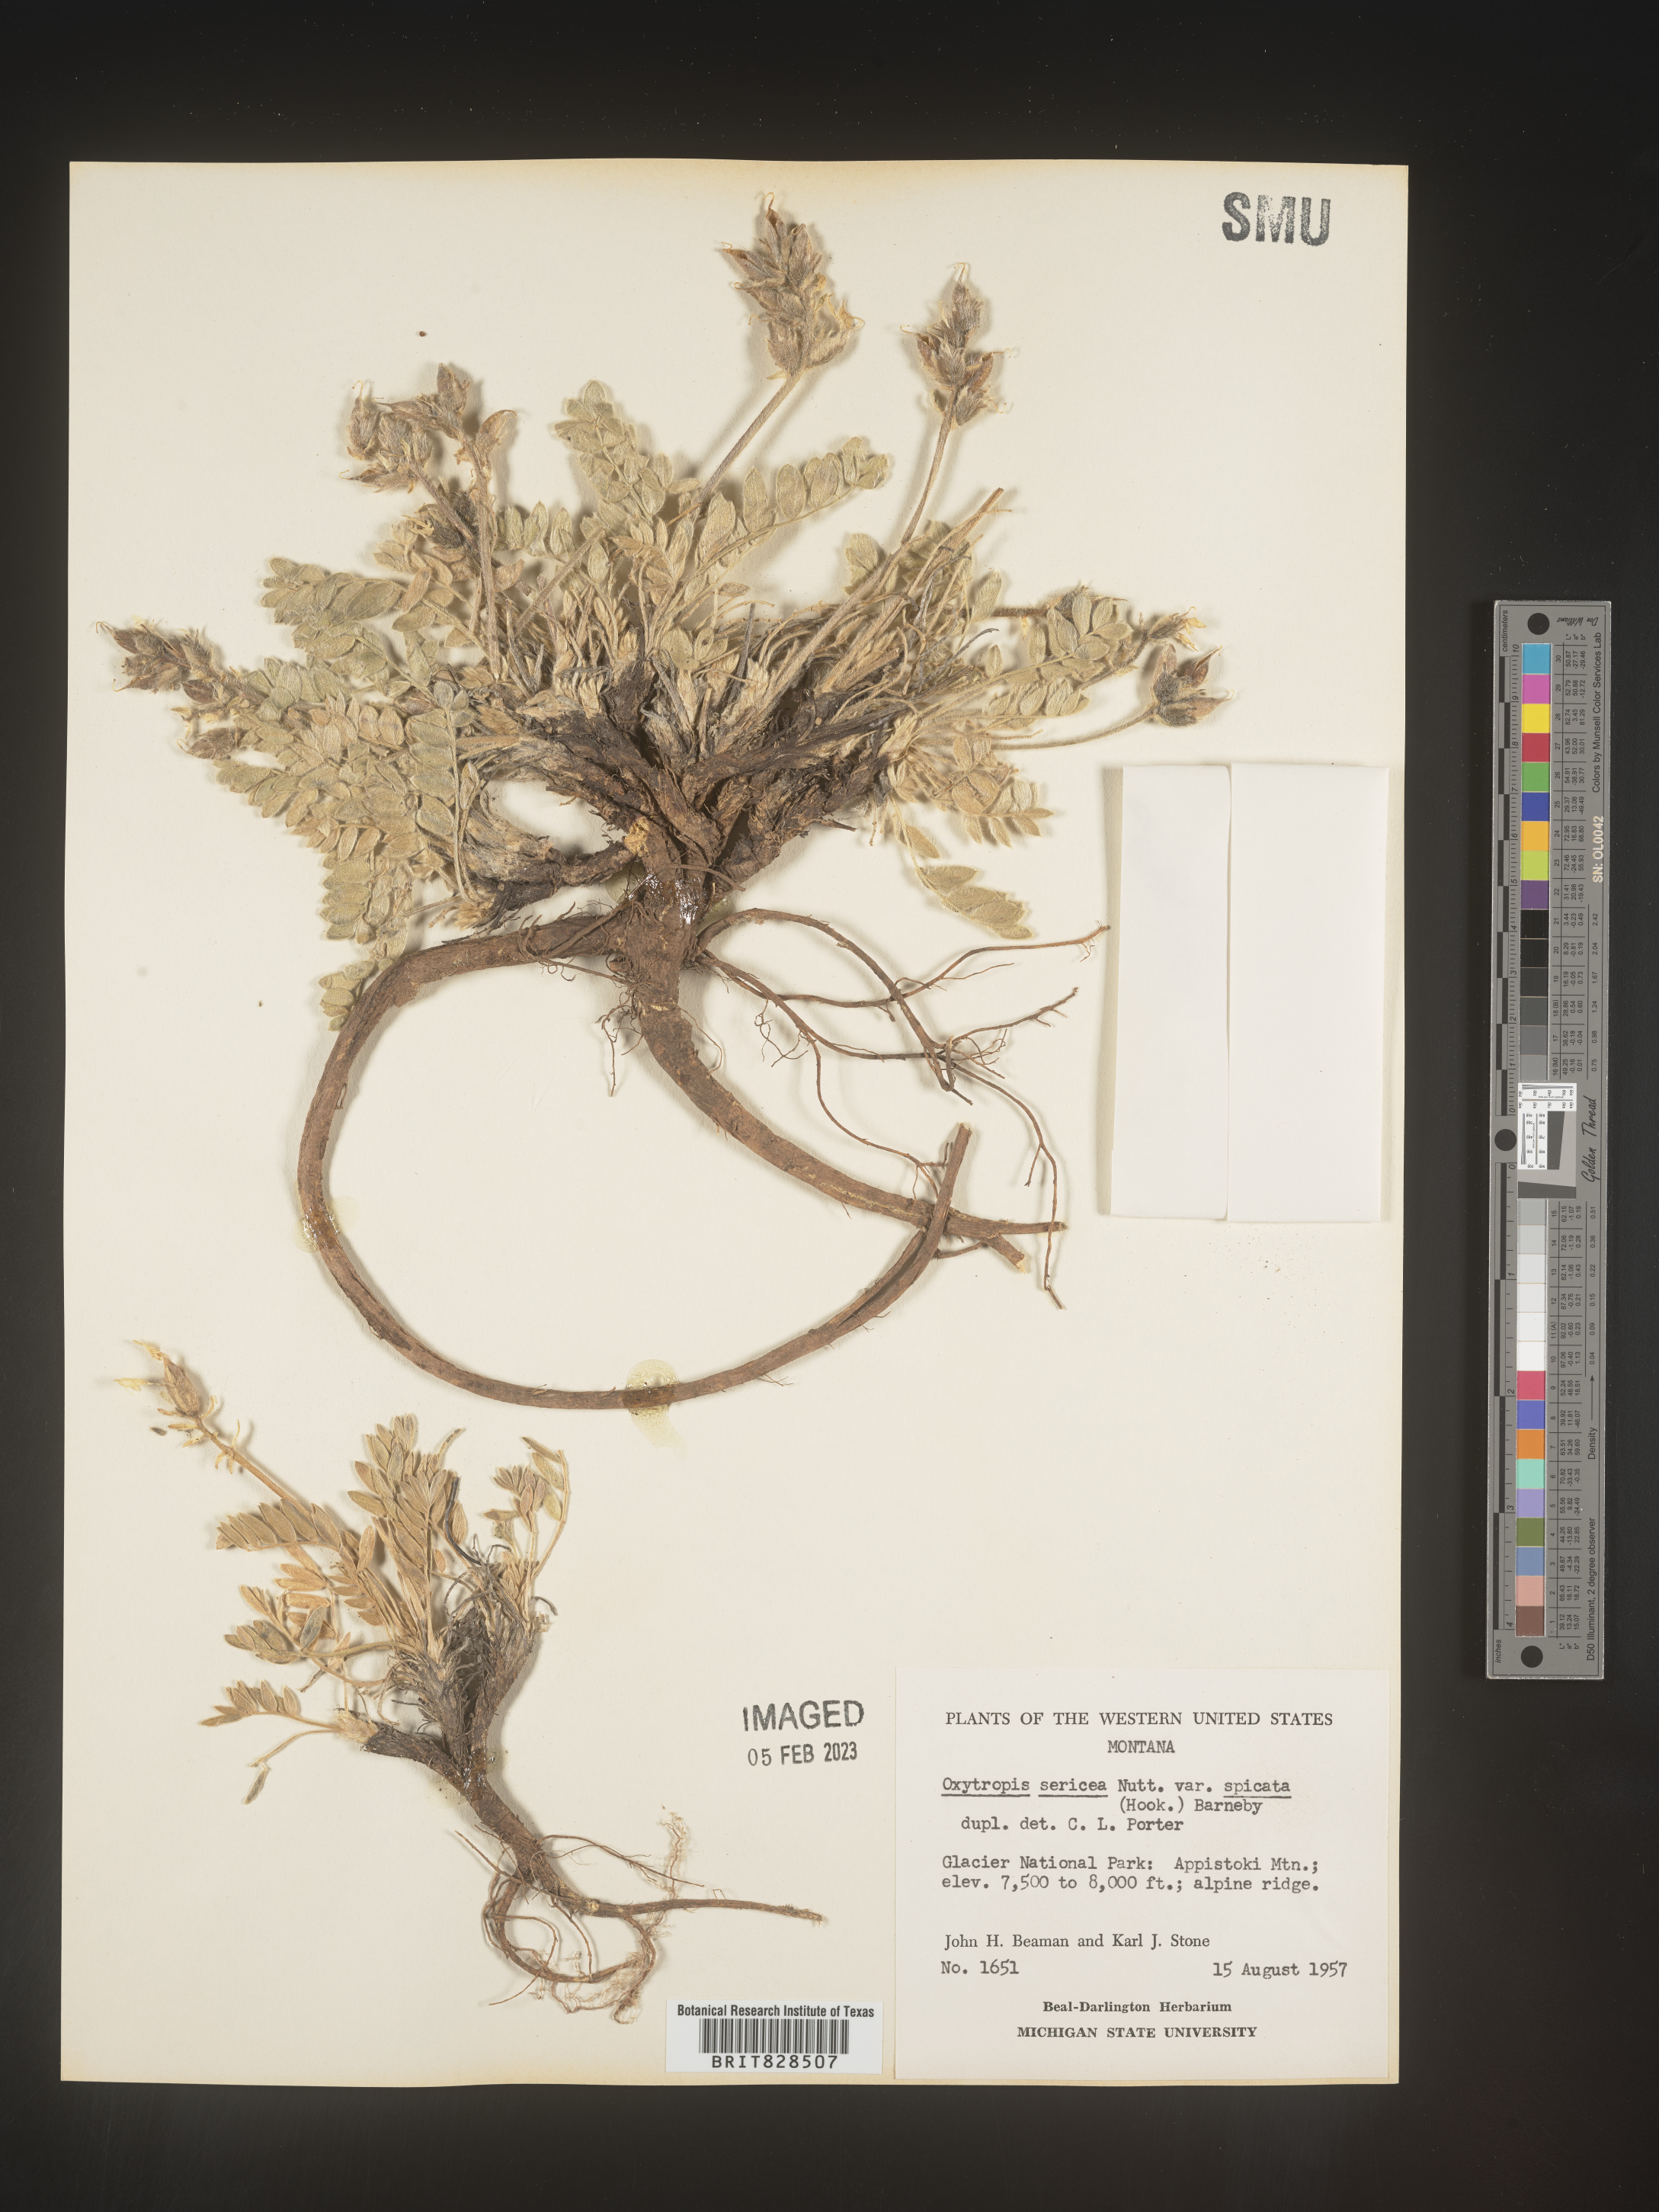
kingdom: Plantae
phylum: Tracheophyta
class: Magnoliopsida
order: Fabales
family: Fabaceae
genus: Oxytropis
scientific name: Oxytropis sericea
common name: Silky locoweed
